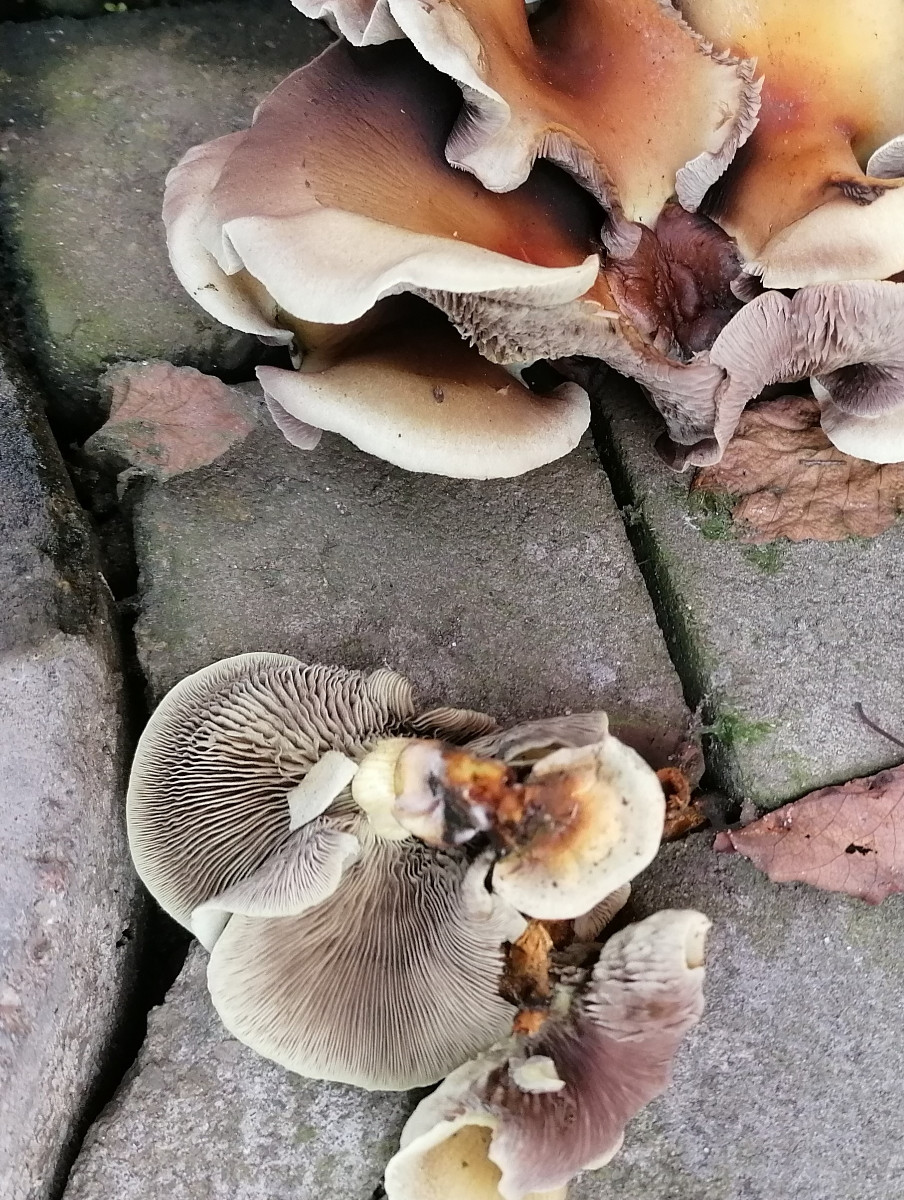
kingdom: Fungi
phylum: Basidiomycota
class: Agaricomycetes
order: Agaricales
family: Strophariaceae
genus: Hypholoma
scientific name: Hypholoma fasciculare
